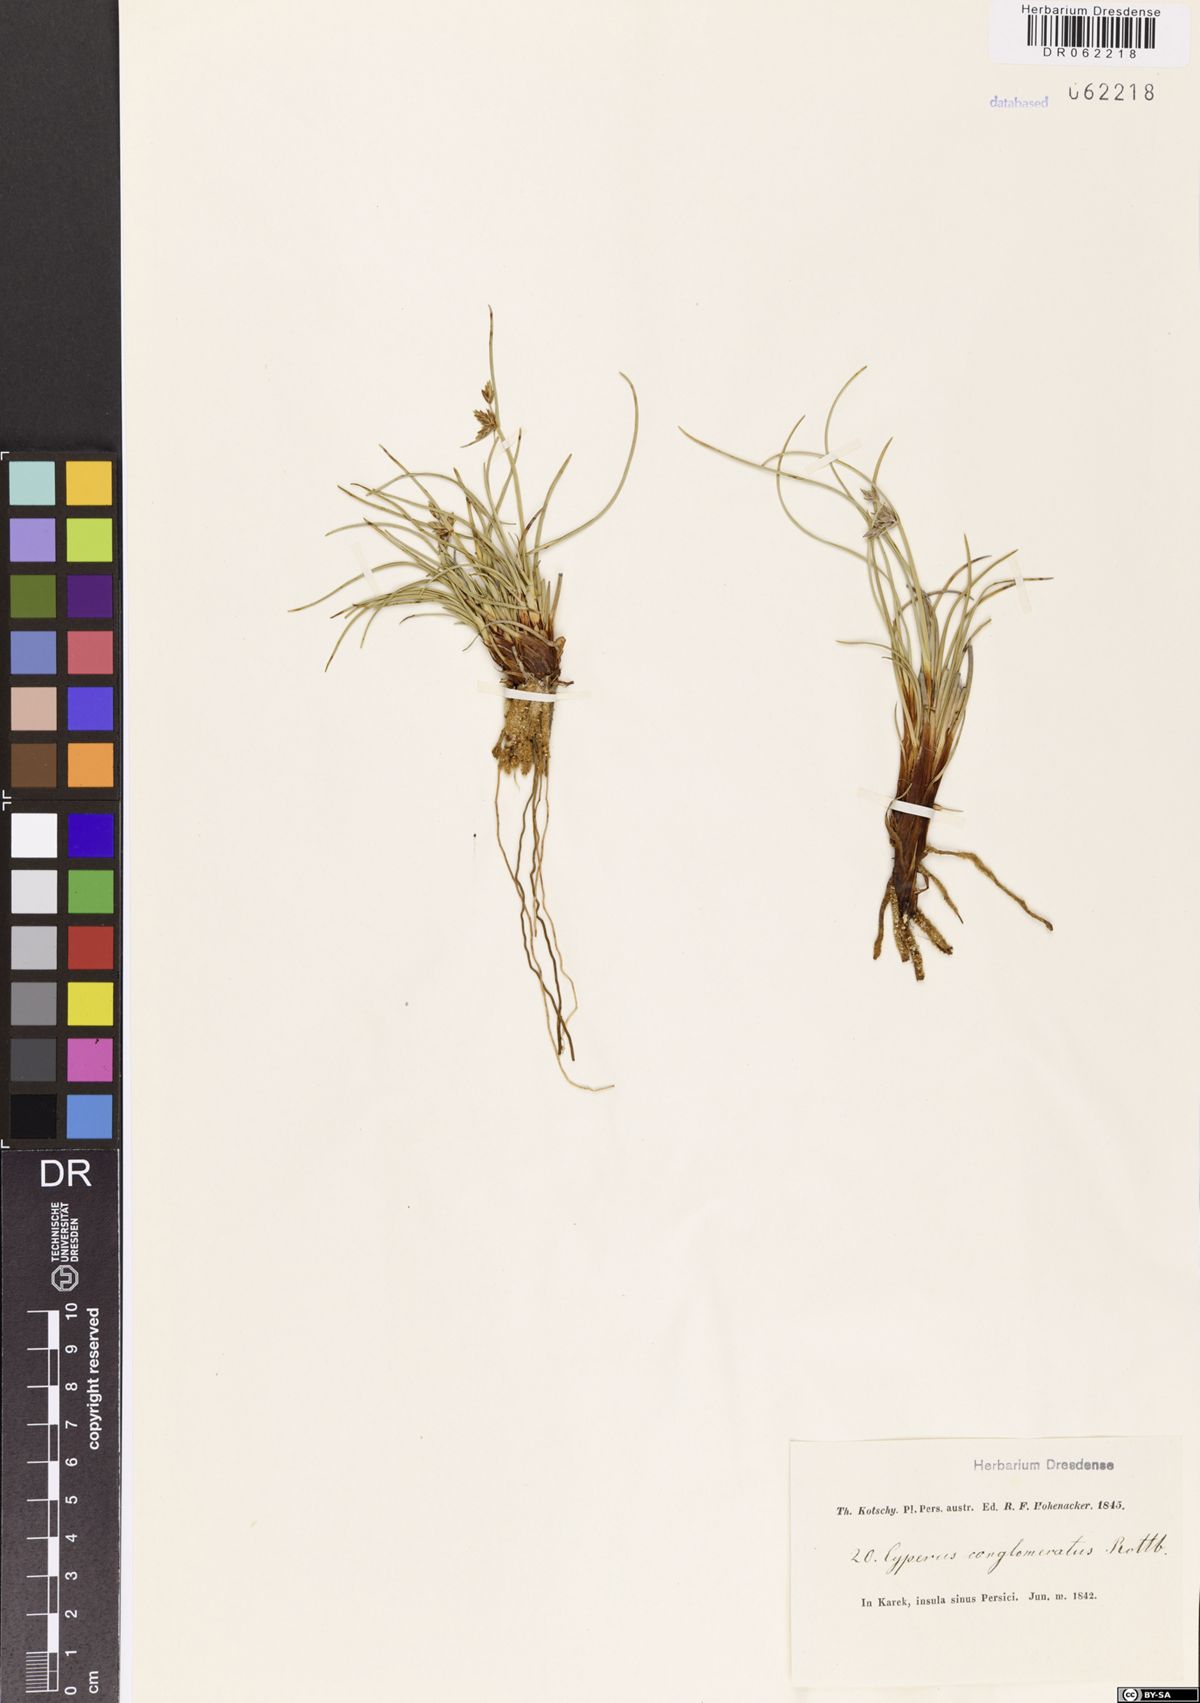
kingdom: Plantae
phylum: Tracheophyta
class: Liliopsida
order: Poales
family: Cyperaceae
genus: Cyperus
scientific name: Cyperus conglomeratus
